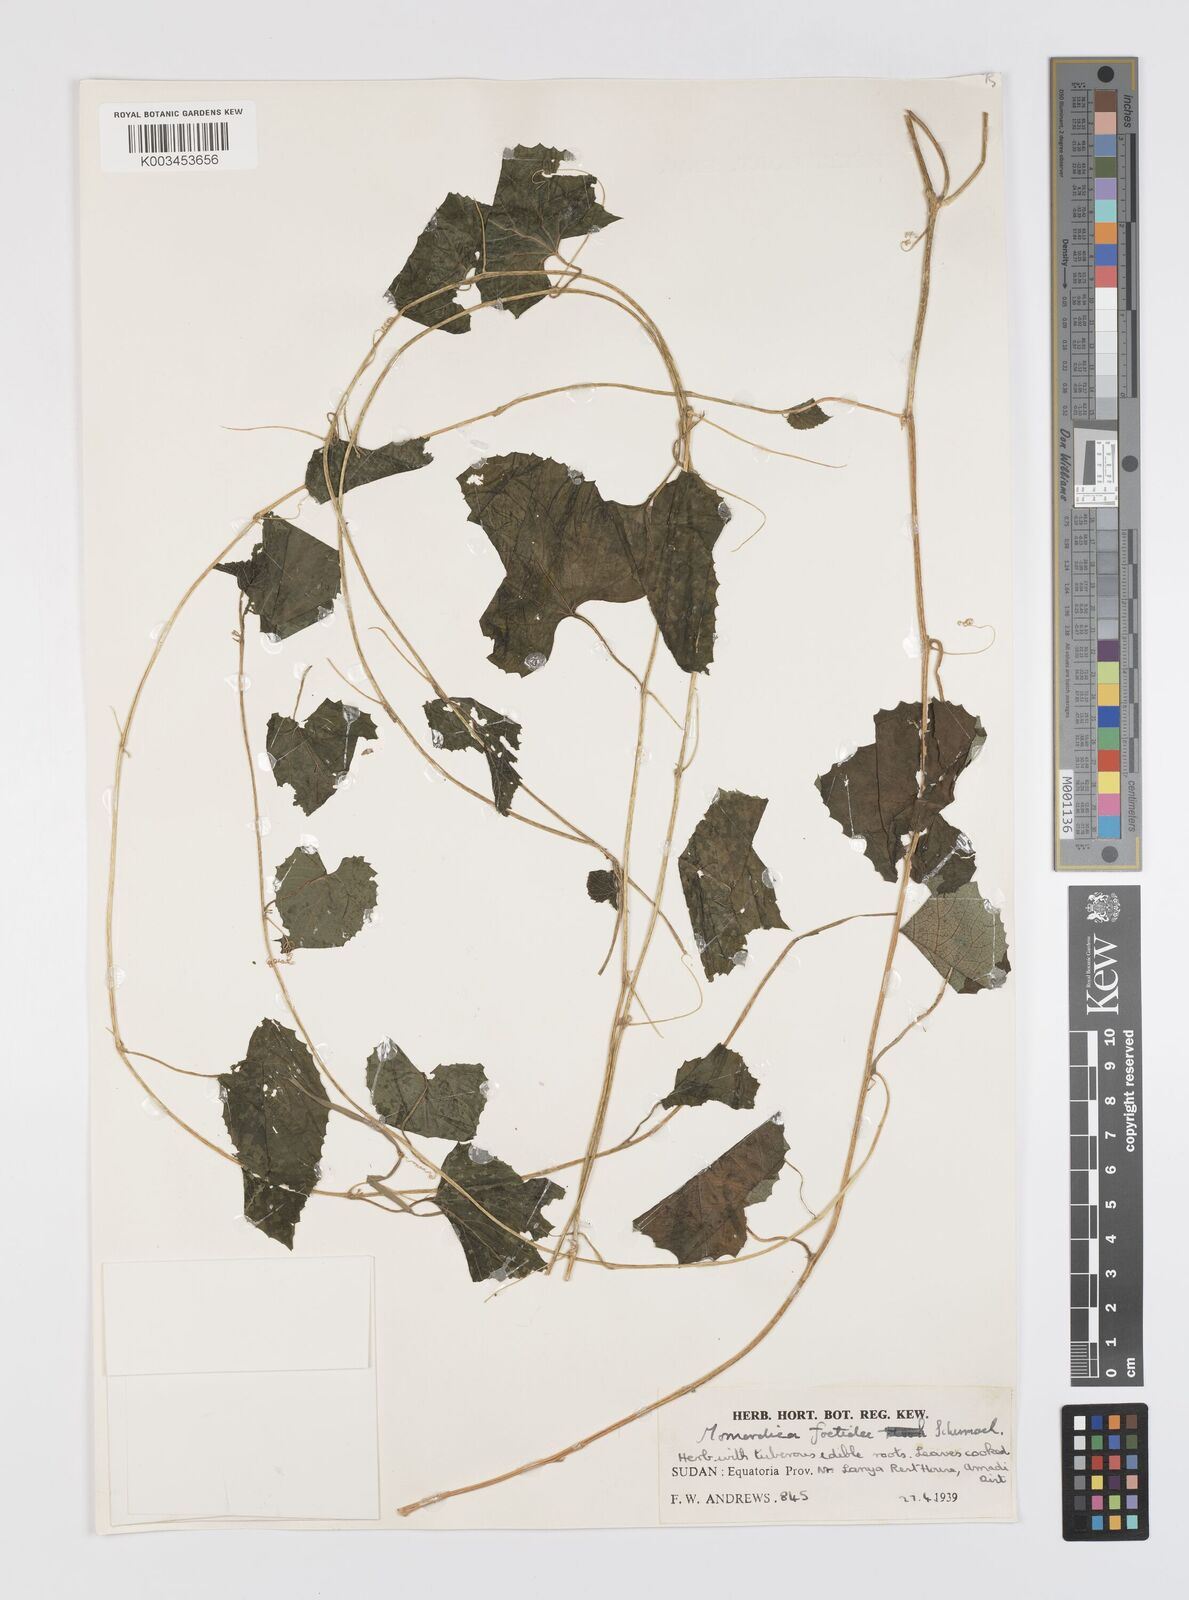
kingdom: Plantae
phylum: Tracheophyta
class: Magnoliopsida
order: Cucurbitales
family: Cucurbitaceae
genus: Momordica
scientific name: Momordica foetida
